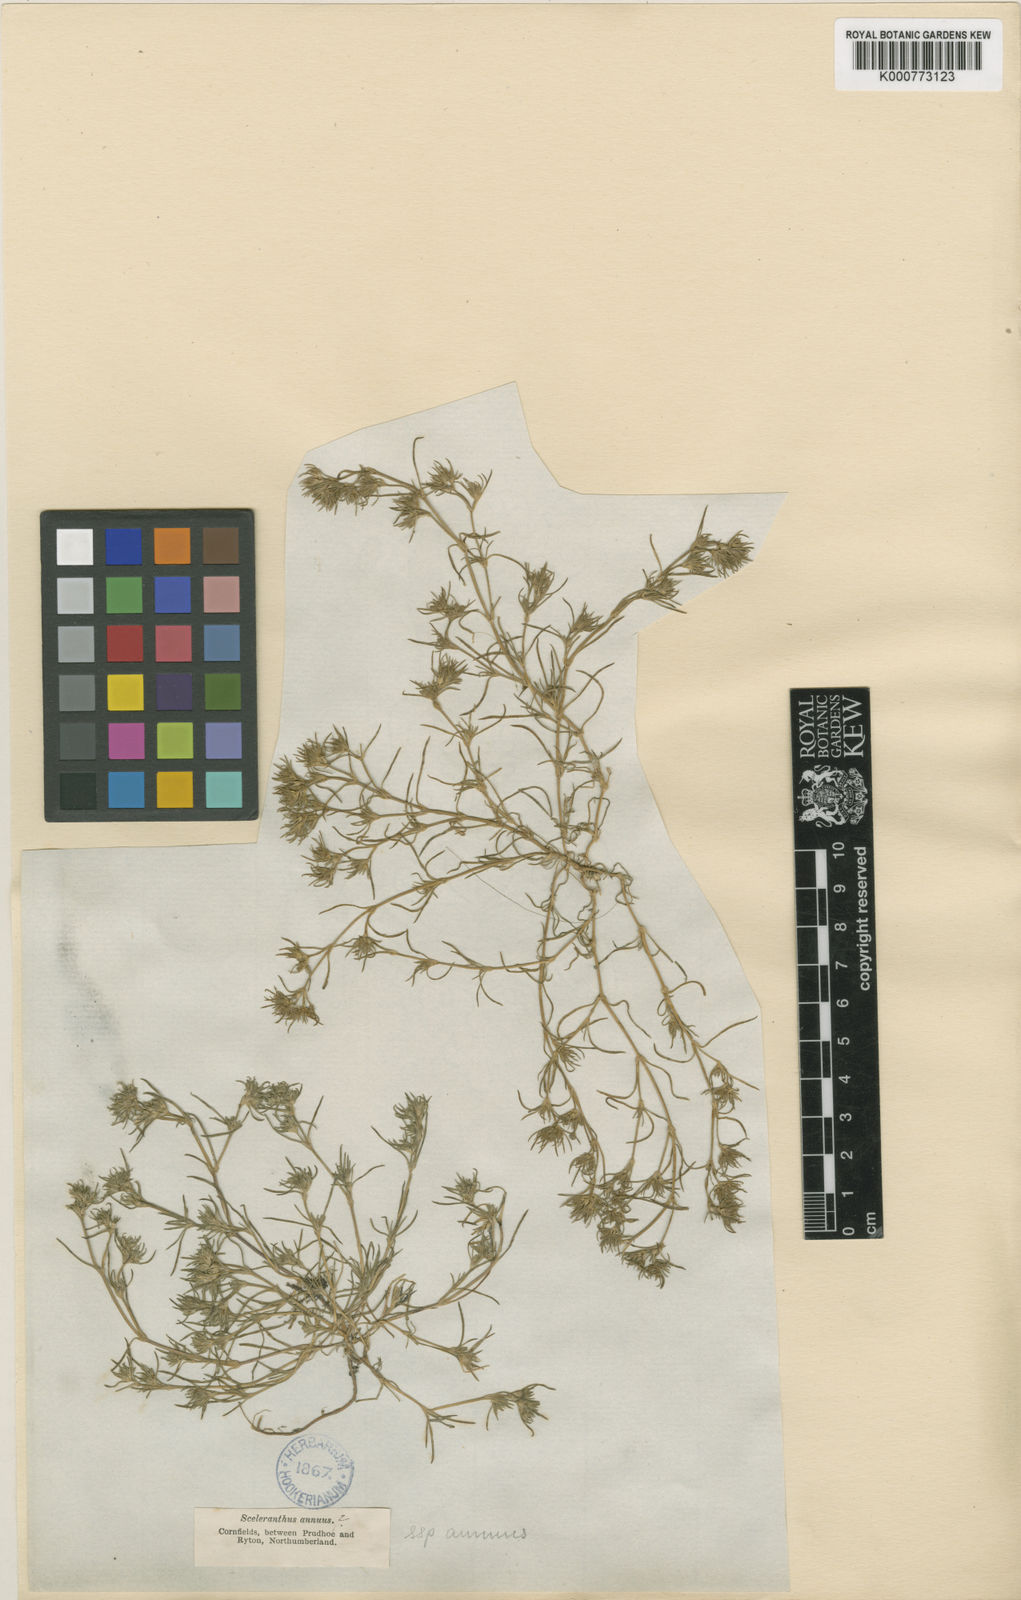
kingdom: Plantae
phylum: Tracheophyta
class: Magnoliopsida
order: Caryophyllales
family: Caryophyllaceae
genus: Scleranthus
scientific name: Scleranthus annuus
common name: Annual knawel
